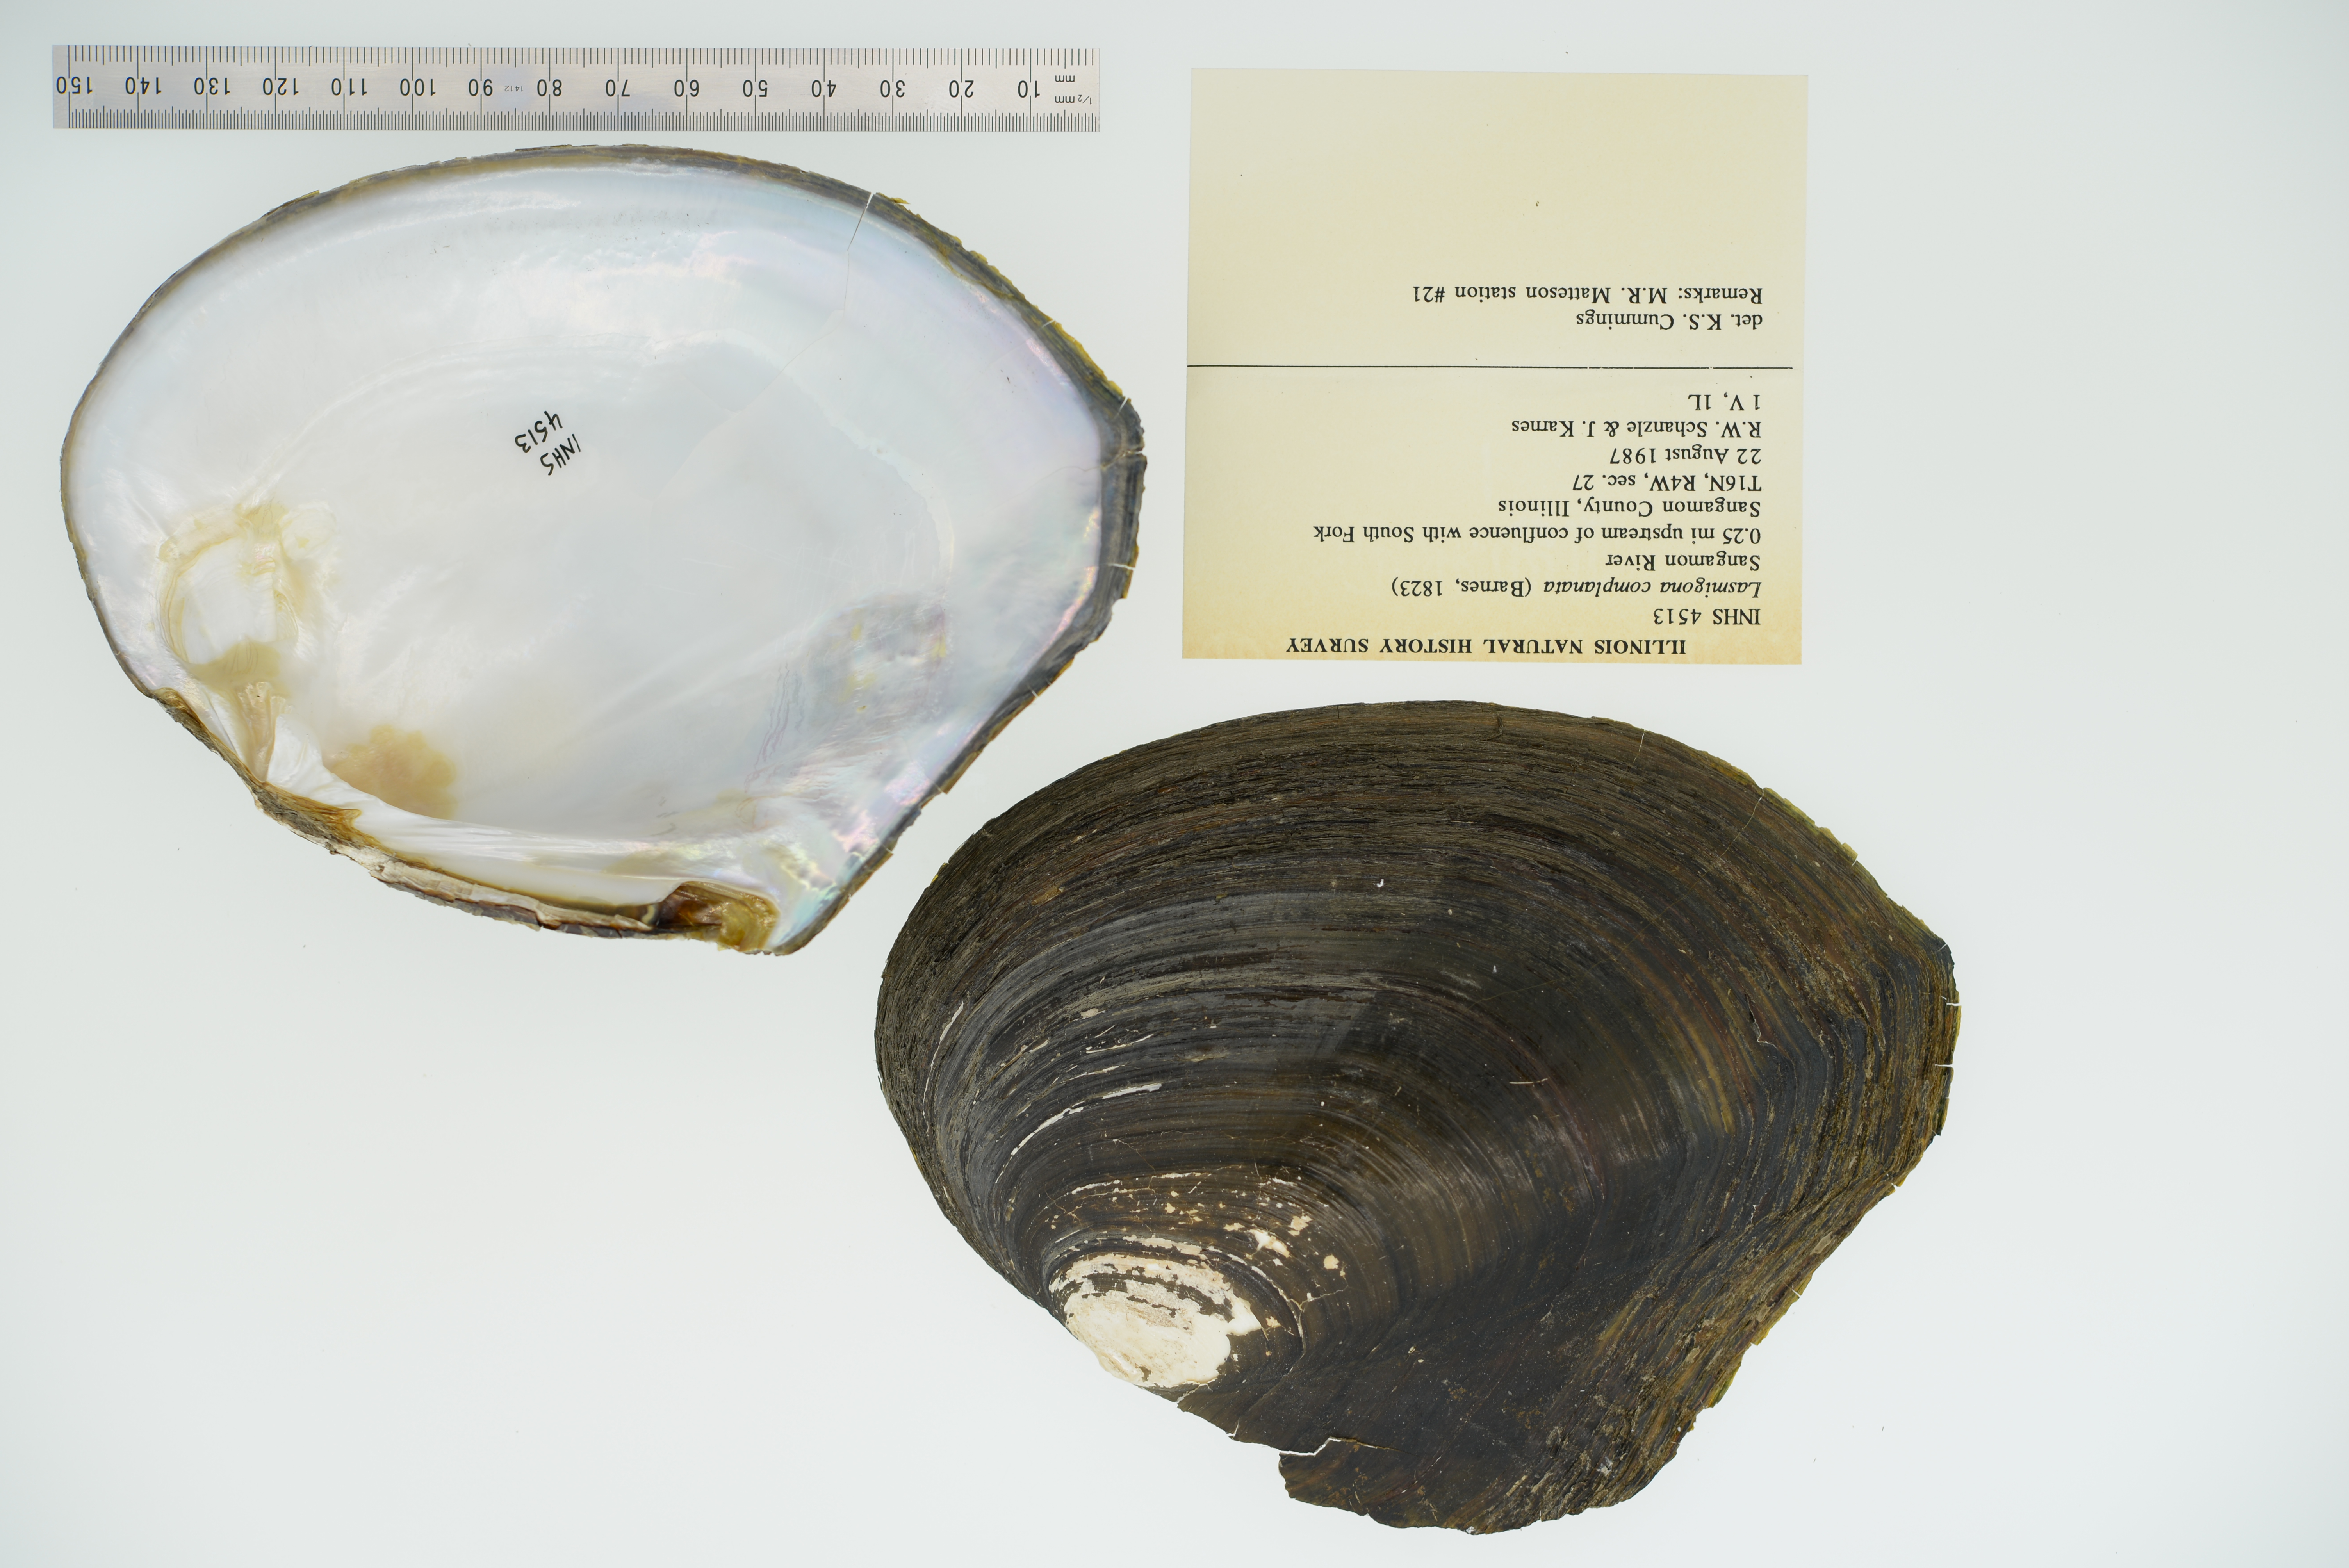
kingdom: Animalia
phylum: Mollusca
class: Bivalvia
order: Unionida
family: Unionidae
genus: Lasmigona
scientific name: Lasmigona complanata
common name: White heelsplitter
